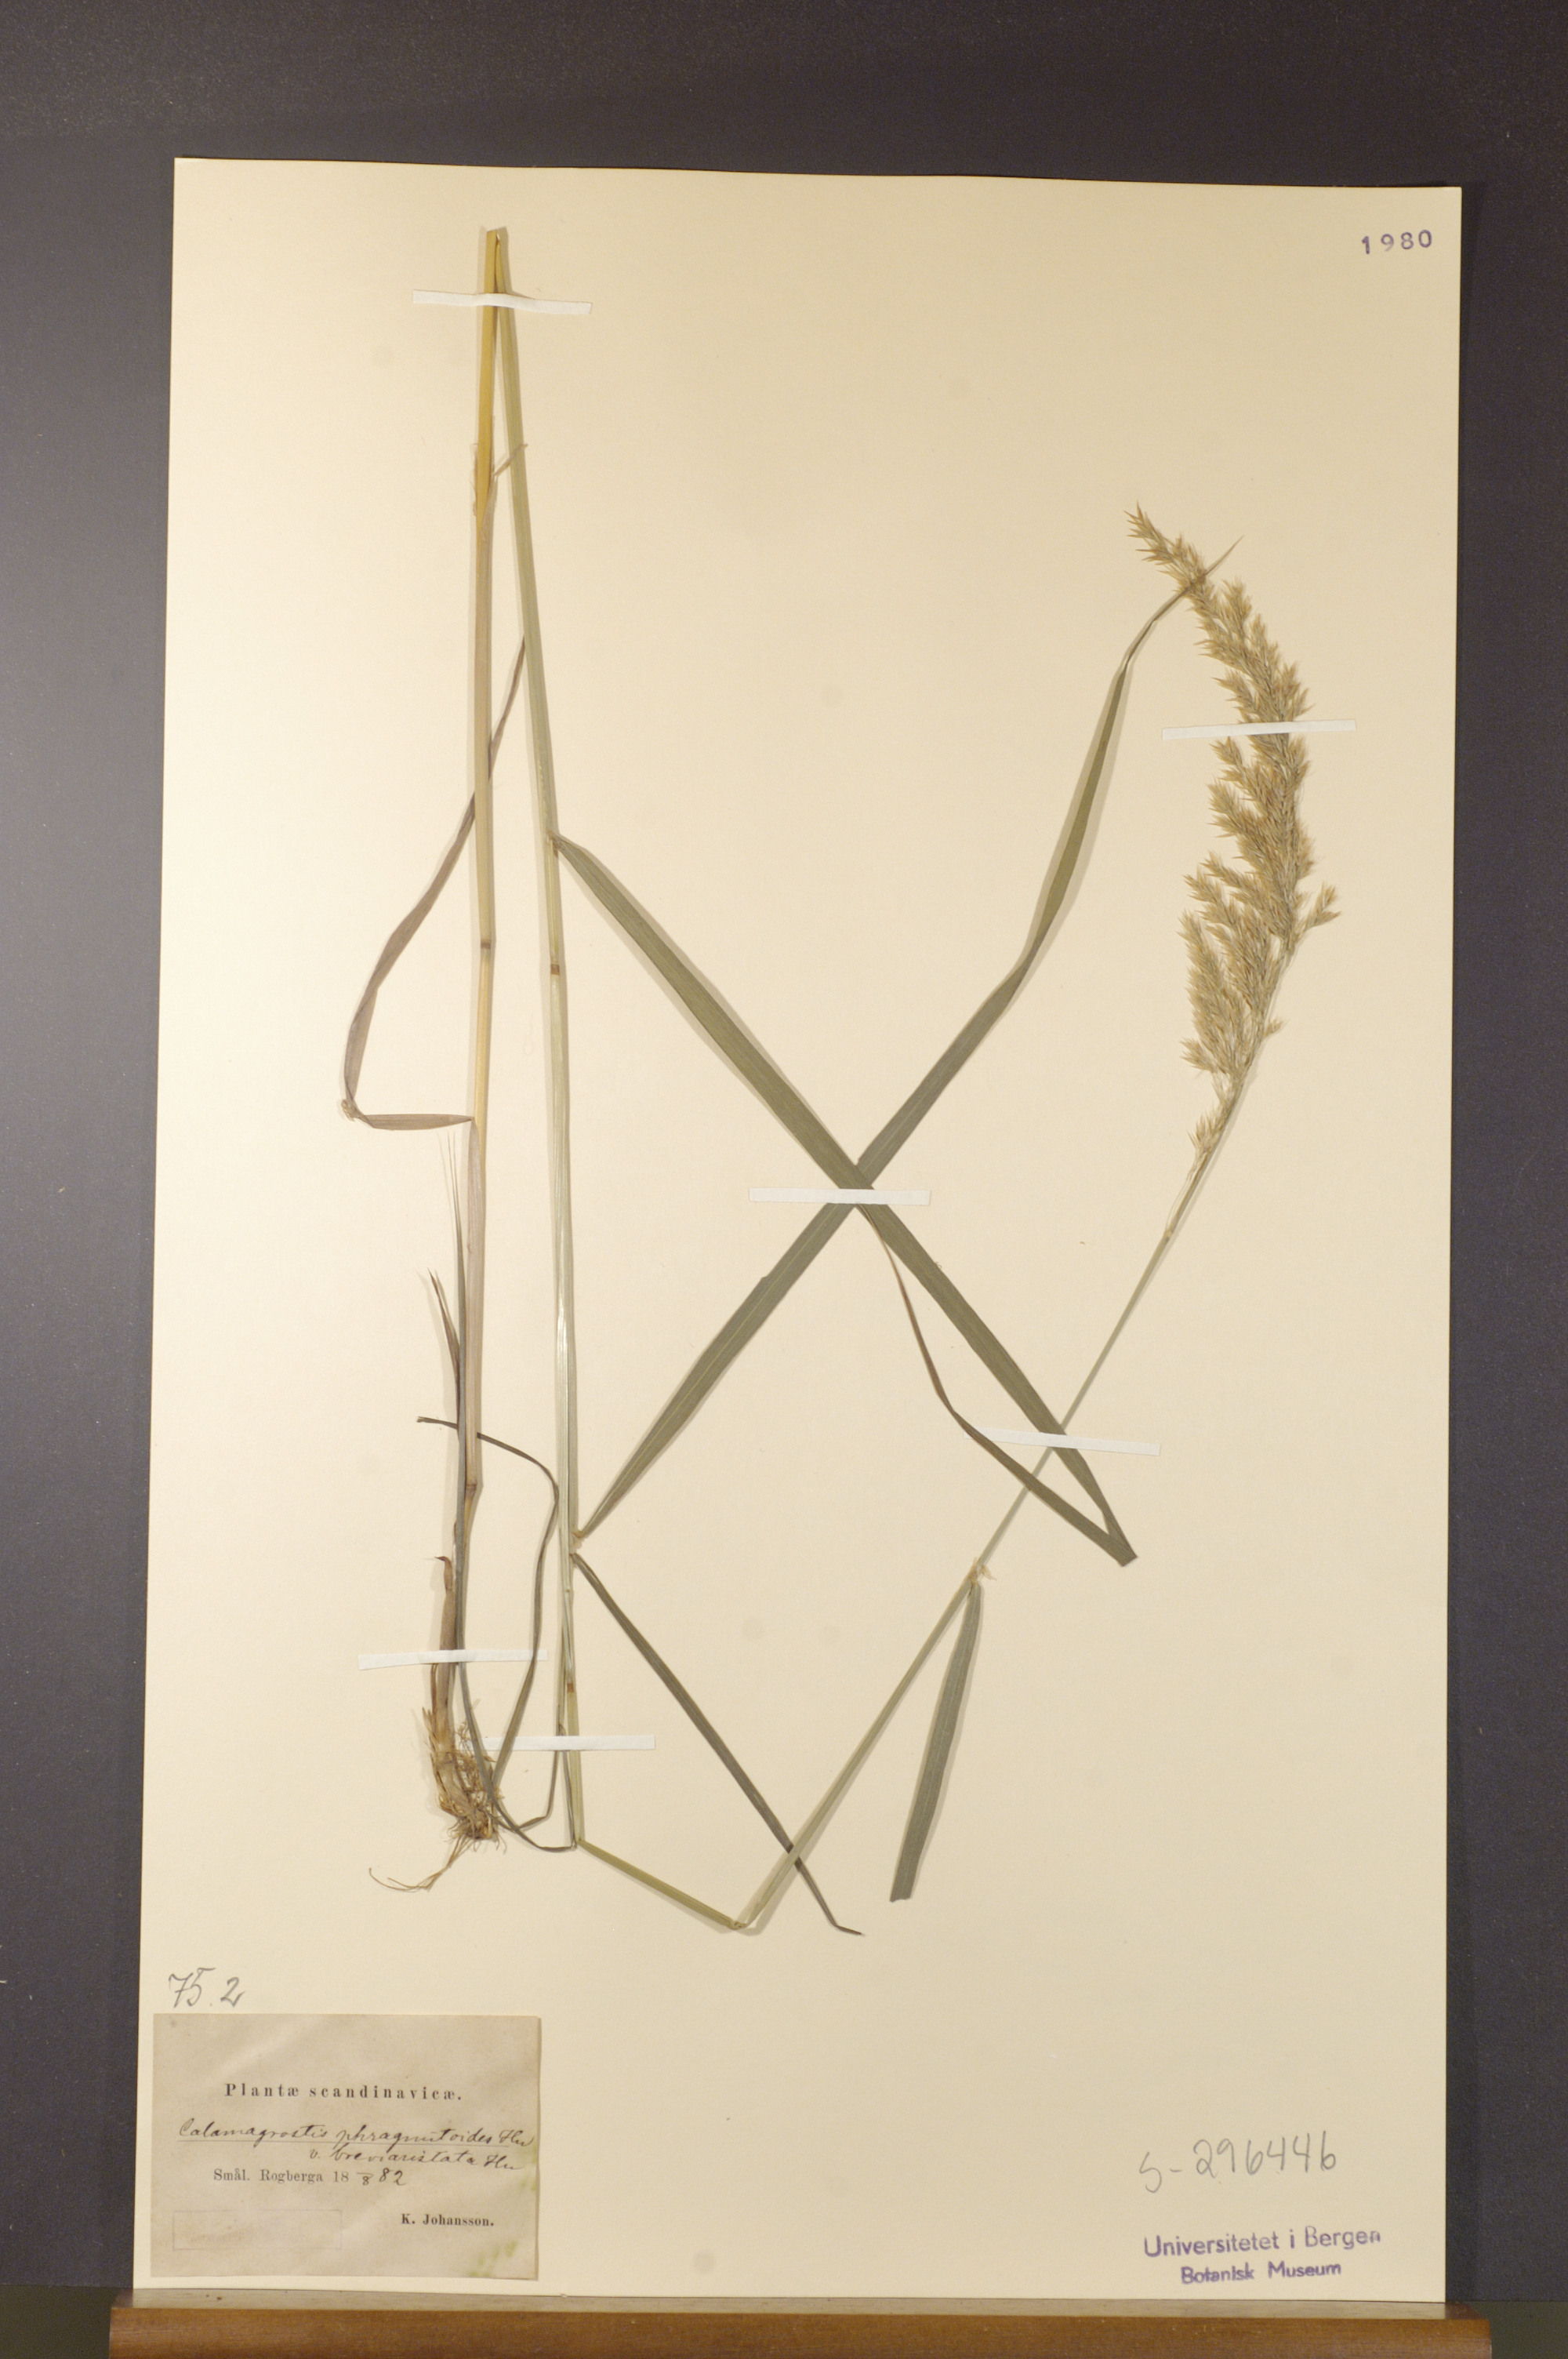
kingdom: Plantae
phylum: Tracheophyta
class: Liliopsida
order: Poales
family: Poaceae
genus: Calamagrostis
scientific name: Calamagrostis purpurea
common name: Scandinavian small-reed
